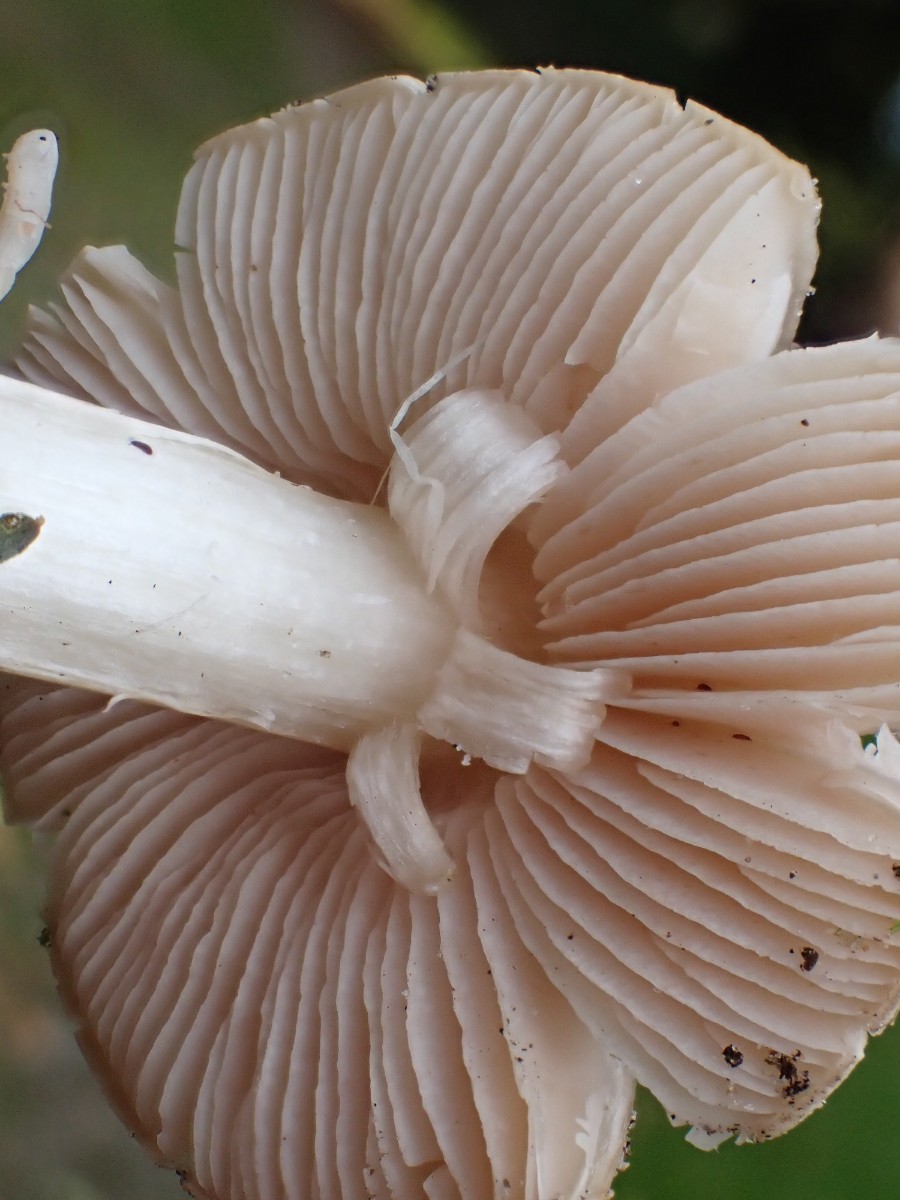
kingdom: Fungi
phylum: Basidiomycota
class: Agaricomycetes
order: Agaricales
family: Entolomataceae
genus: Entoloma
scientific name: Entoloma prunuloides
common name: mel-rødblad
